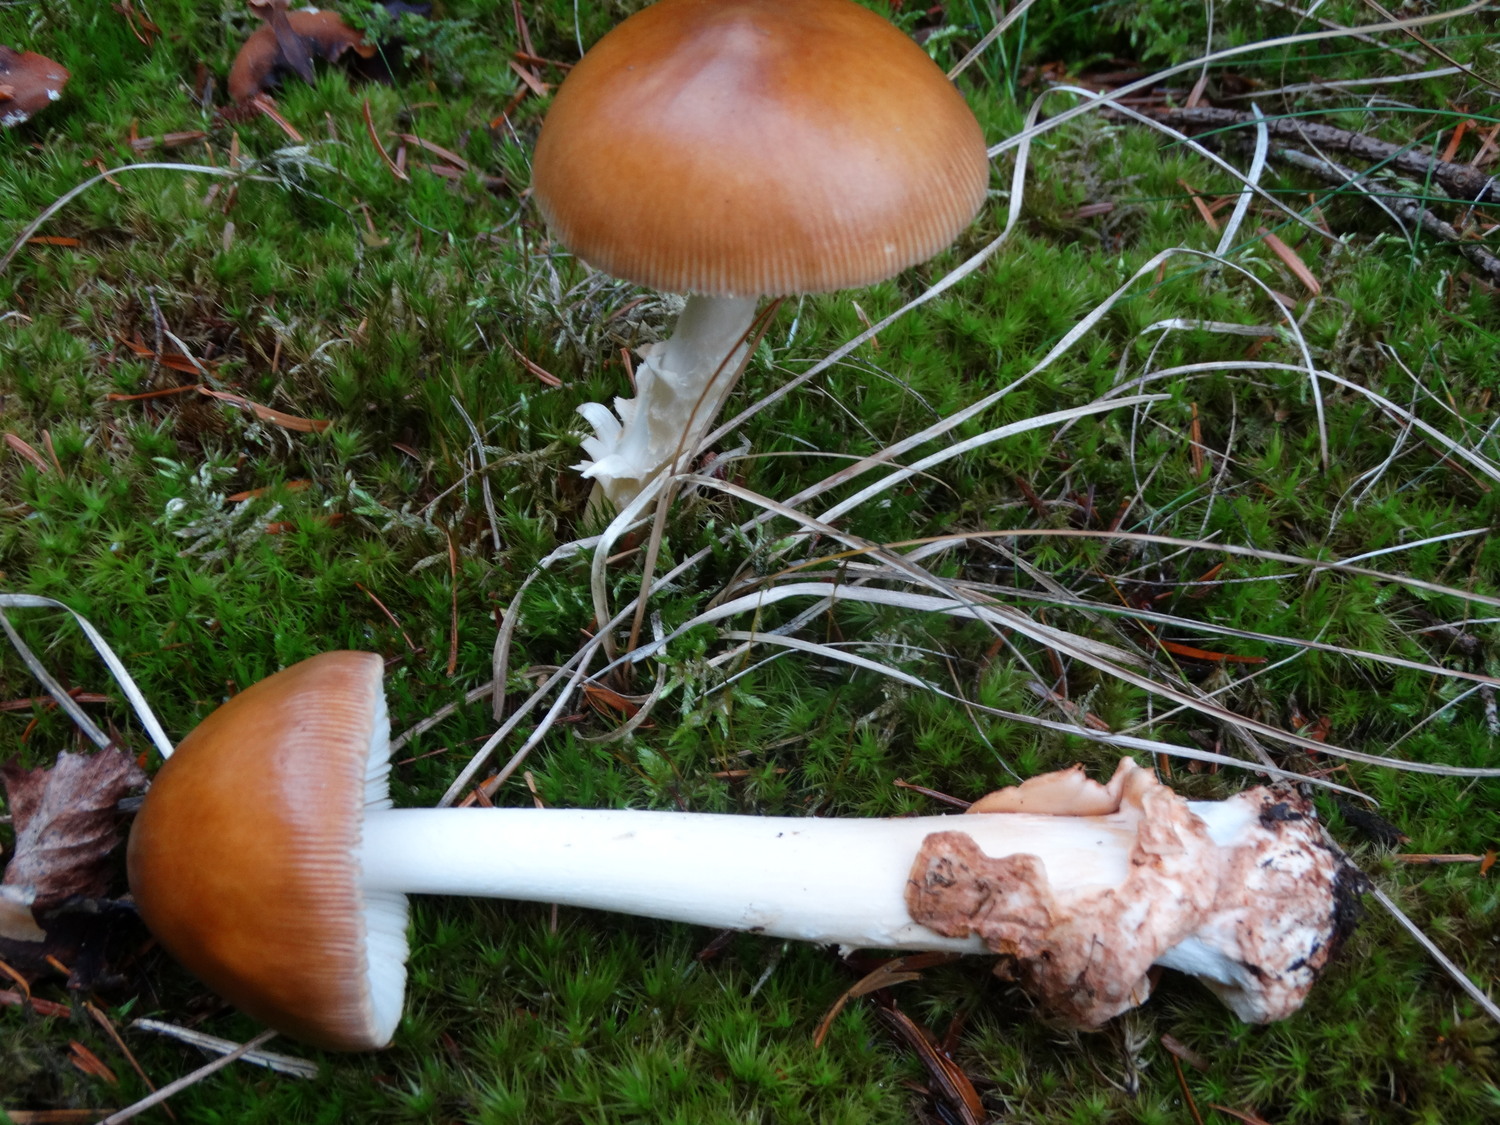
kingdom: Fungi
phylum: Basidiomycota
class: Agaricomycetes
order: Agaricales
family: Amanitaceae
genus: Amanita
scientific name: Amanita fulva
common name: brun kam-fluesvamp
